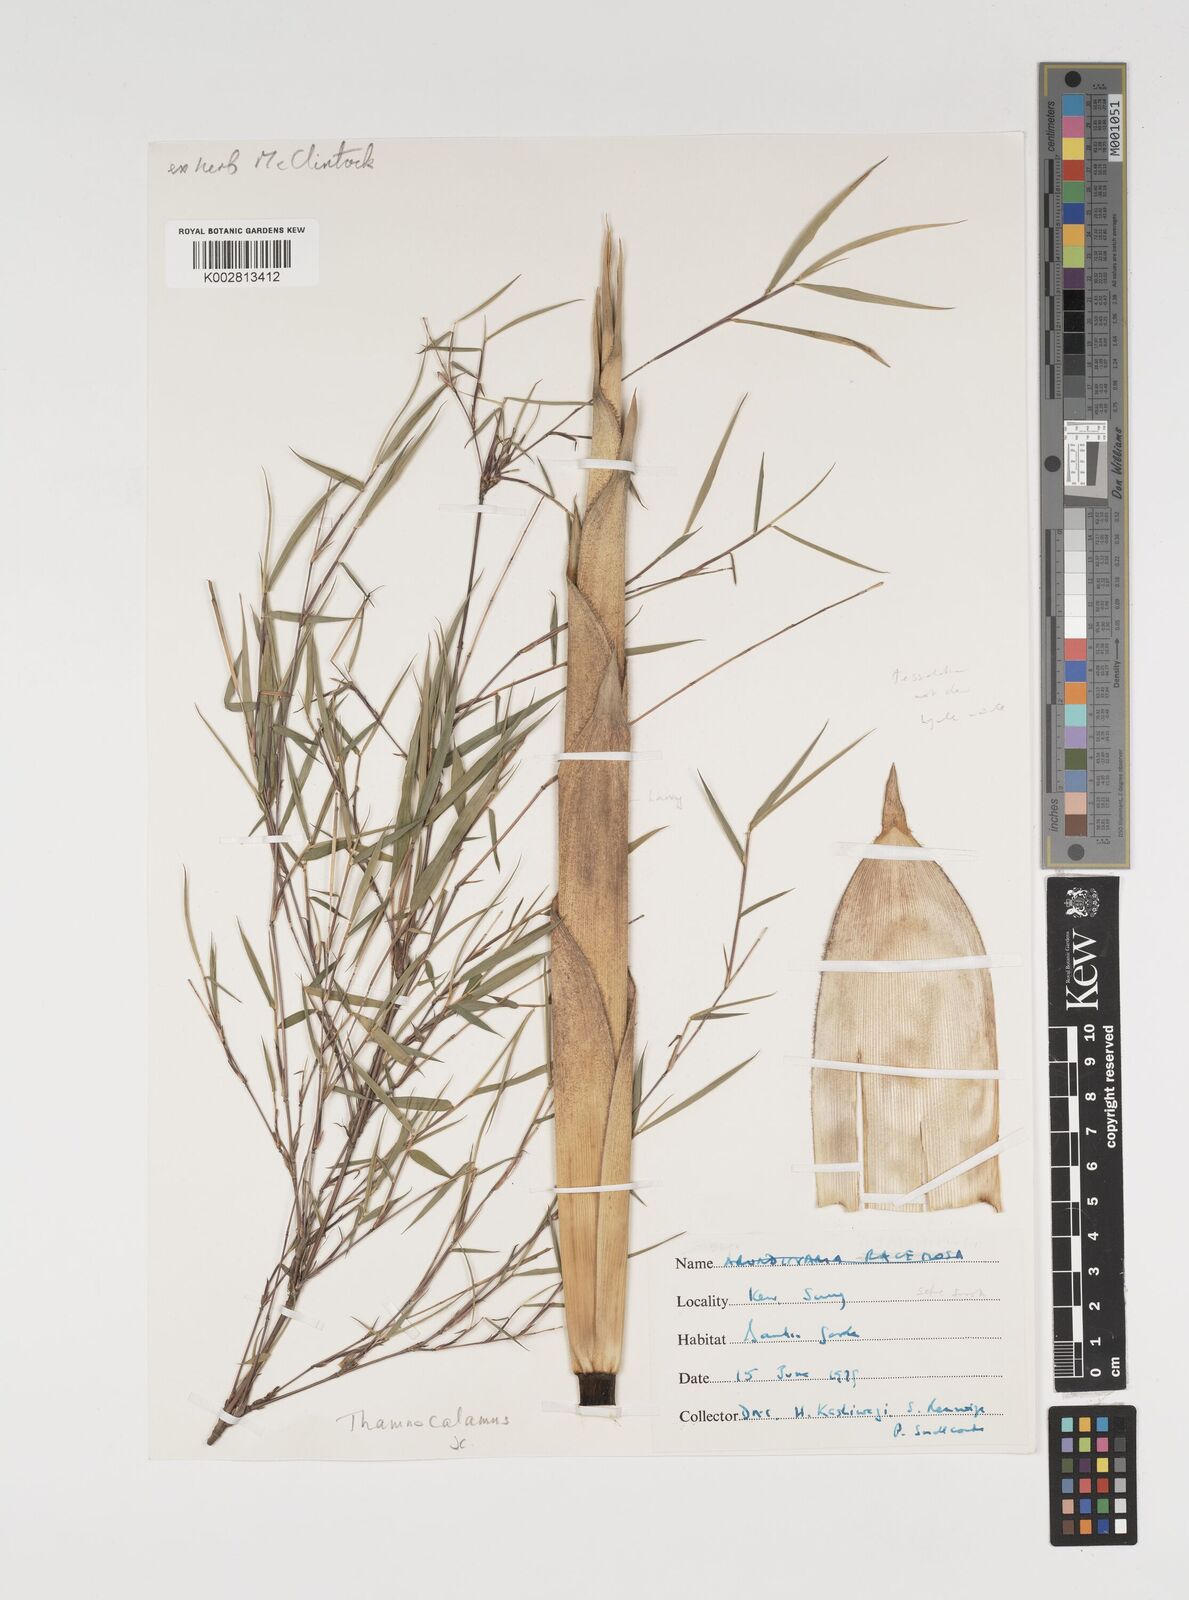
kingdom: Plantae
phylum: Tracheophyta
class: Liliopsida
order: Poales
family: Poaceae
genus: Thamnocalamus
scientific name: Thamnocalamus crassinodus
